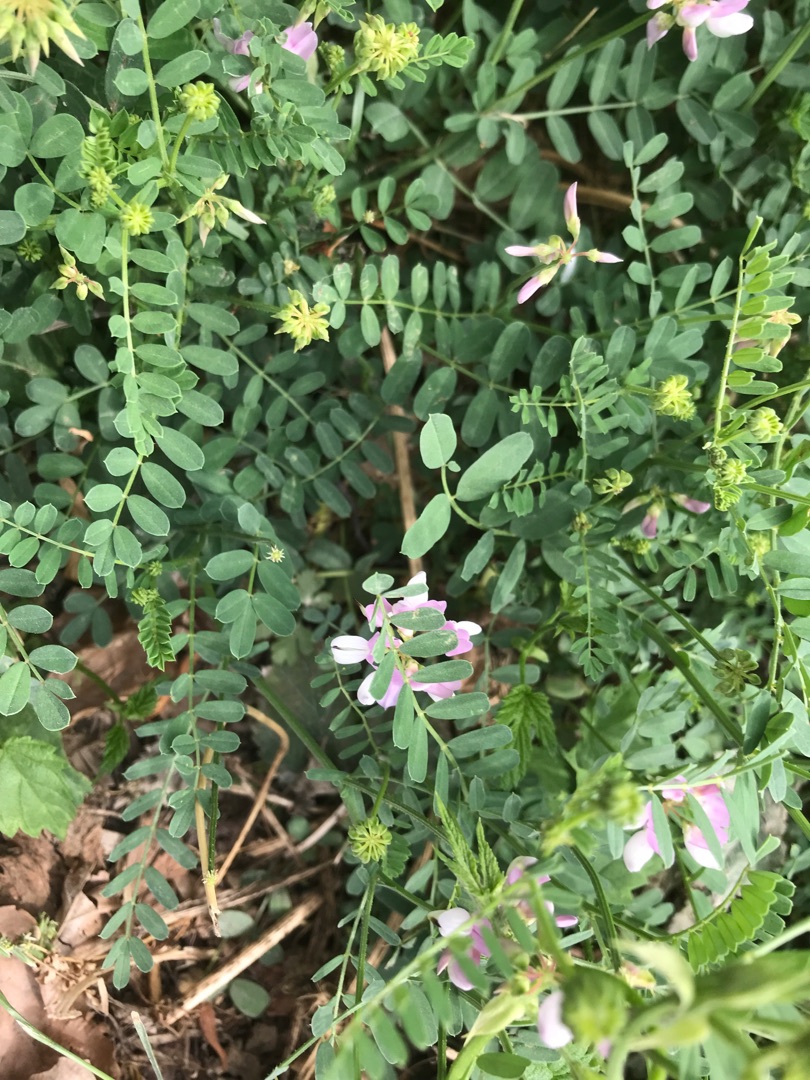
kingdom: Plantae
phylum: Tracheophyta
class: Magnoliopsida
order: Fabales
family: Fabaceae
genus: Coronilla
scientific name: Coronilla varia
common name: Giftig kronvikke
